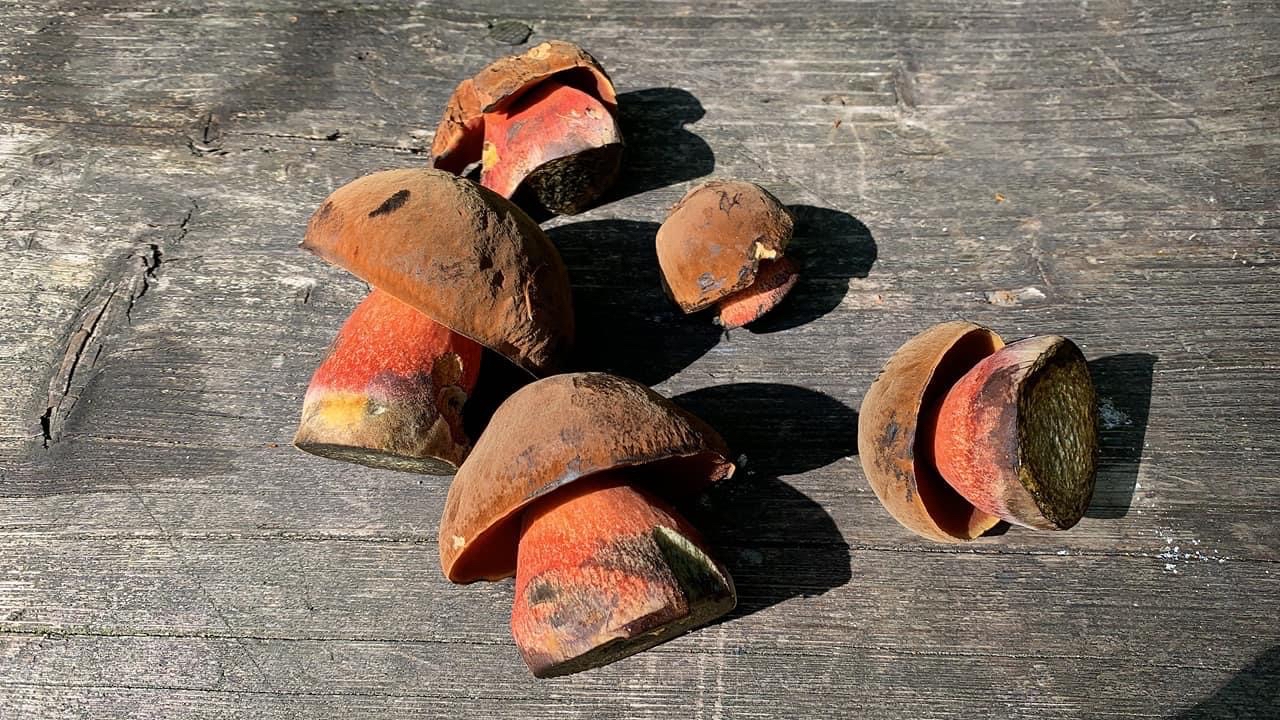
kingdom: Fungi
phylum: Basidiomycota
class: Agaricomycetes
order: Boletales
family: Boletaceae
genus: Neoboletus
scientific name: Neoboletus erythropus
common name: punktstokket indigorørhat
